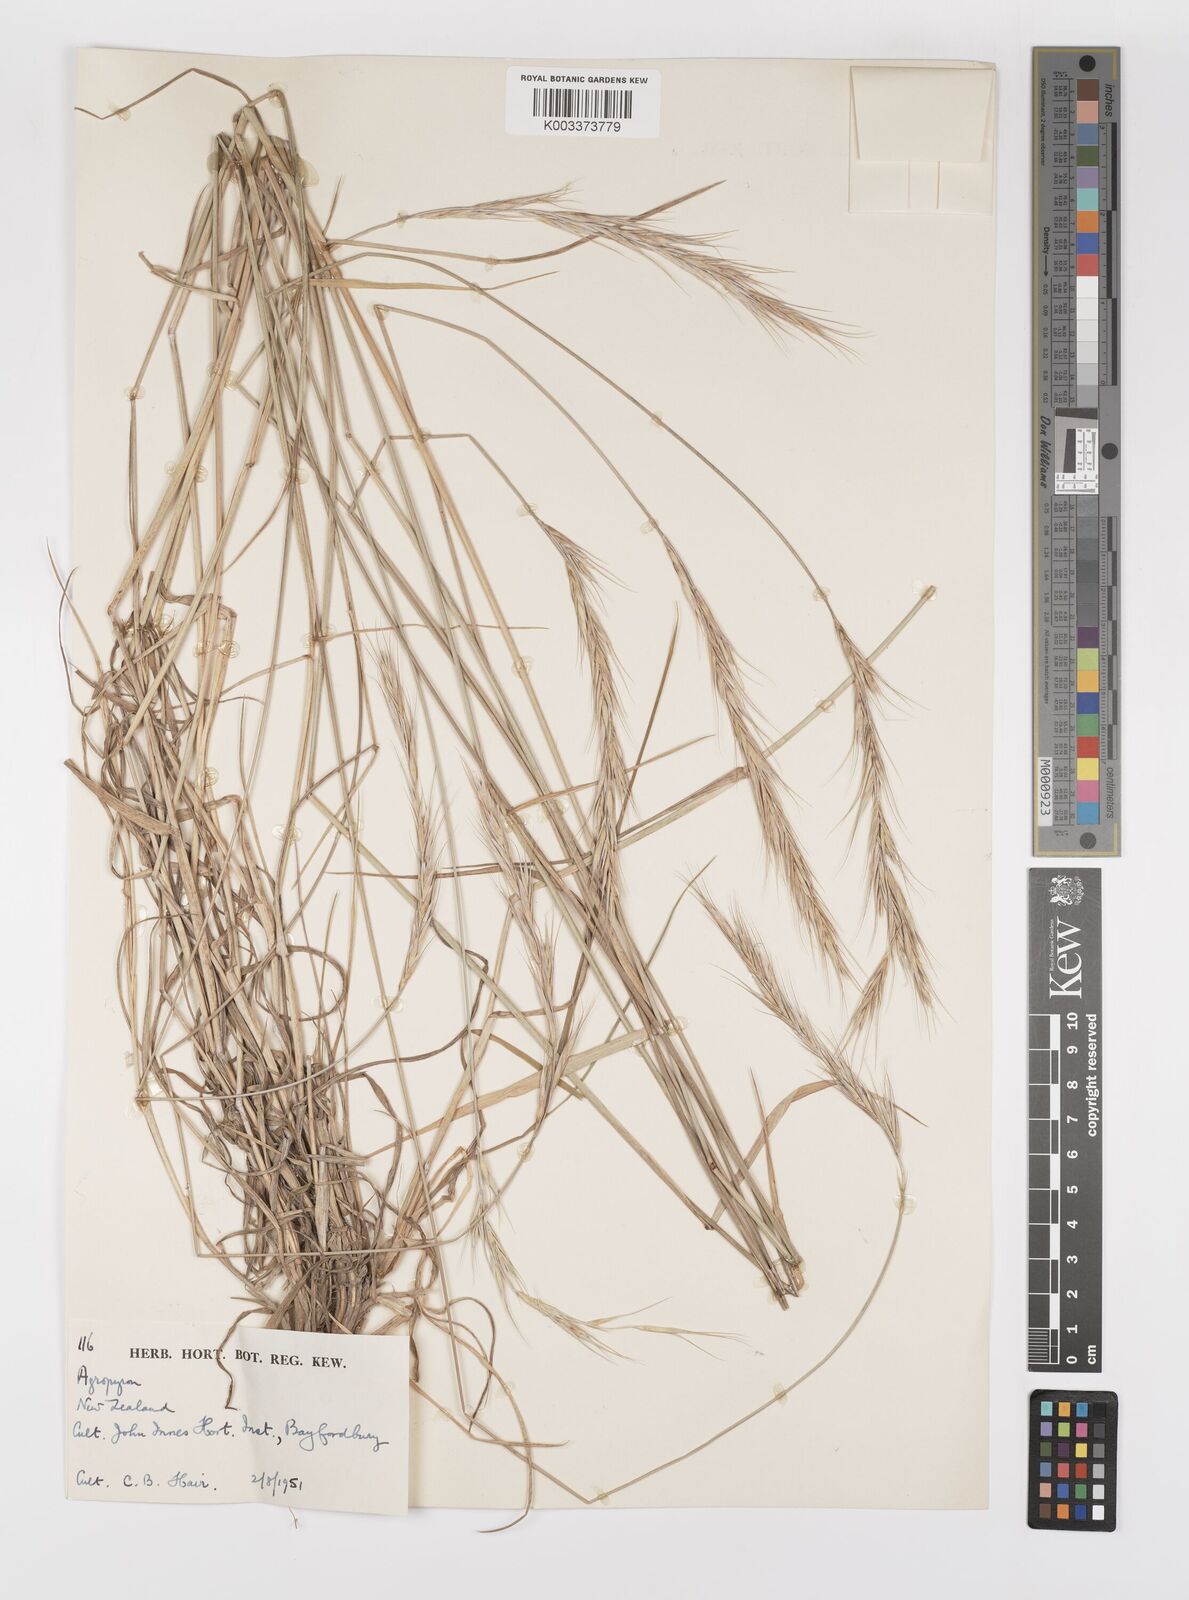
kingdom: Plantae
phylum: Tracheophyta
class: Liliopsida
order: Poales
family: Poaceae
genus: Elymus
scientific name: Elymus
